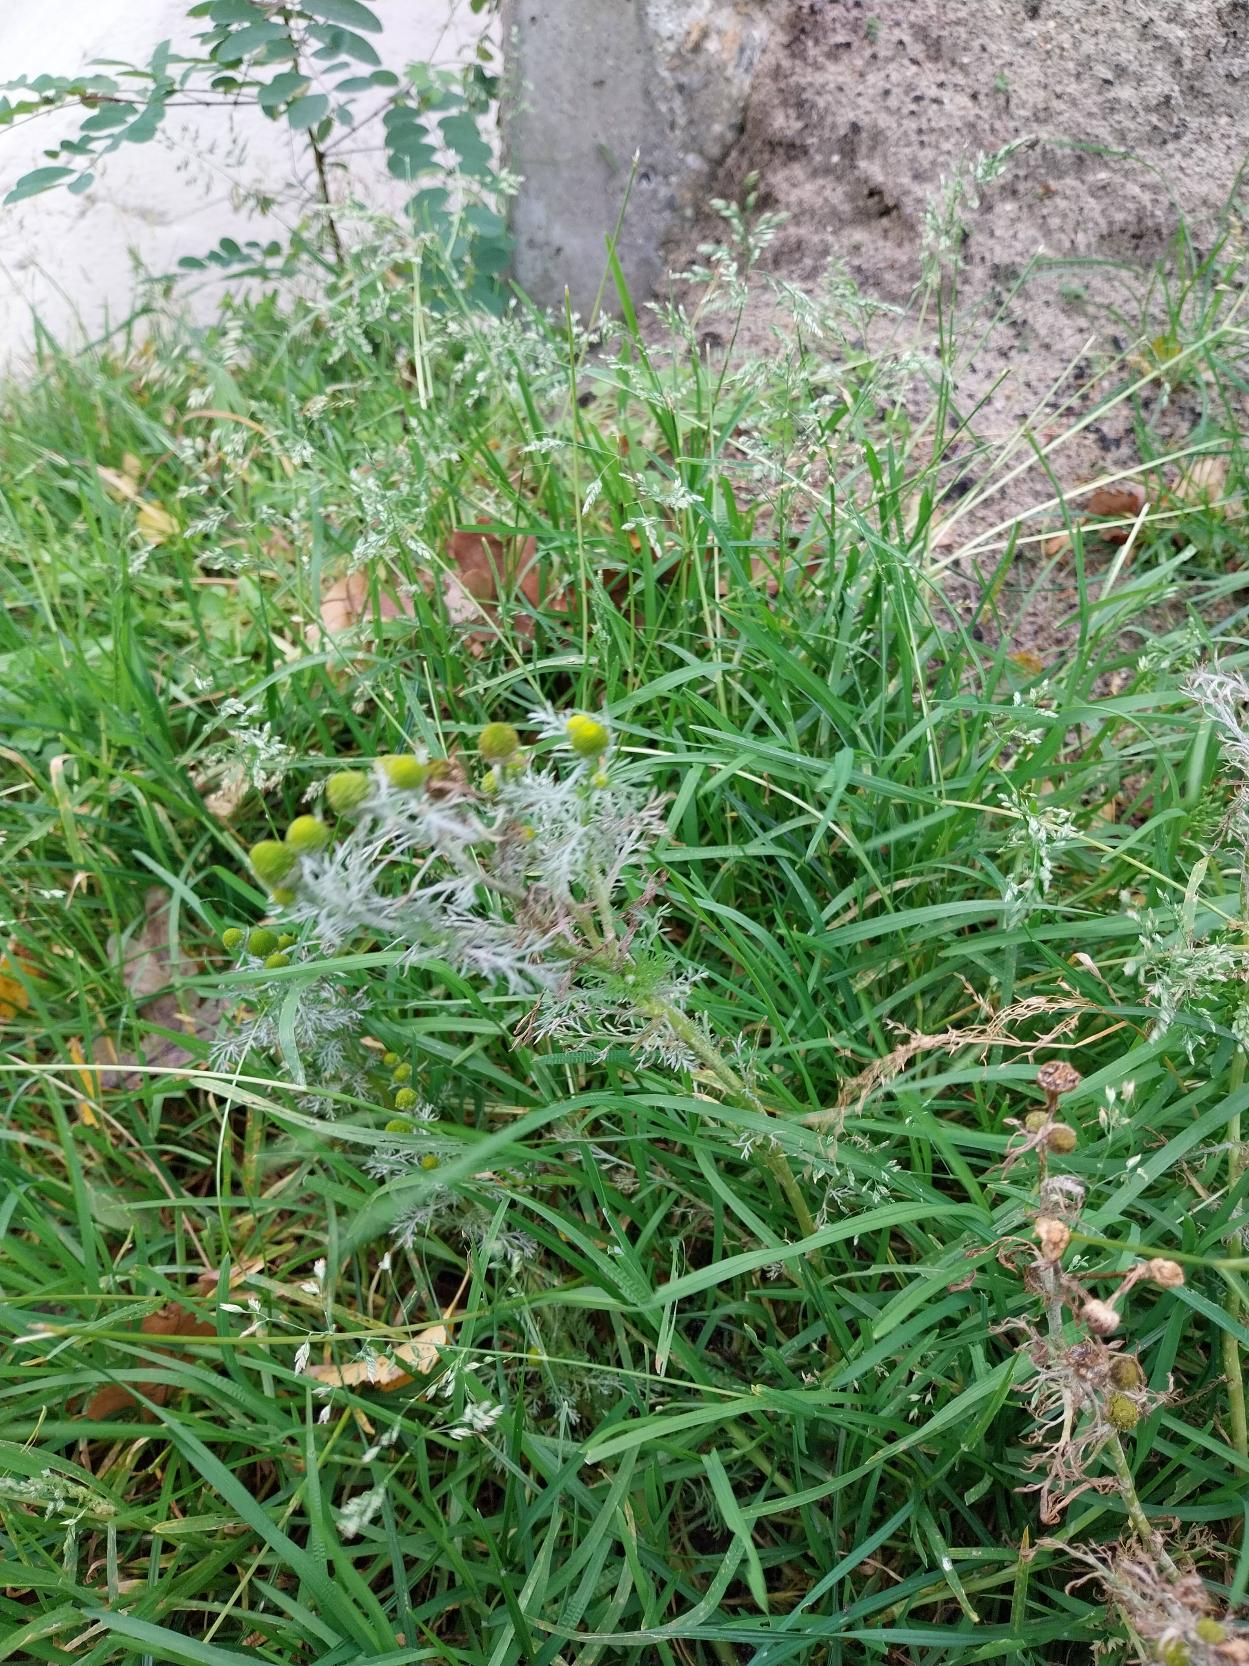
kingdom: Plantae
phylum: Tracheophyta
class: Magnoliopsida
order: Asterales
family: Asteraceae
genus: Matricaria
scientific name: Matricaria discoidea
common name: Skive-kamille
